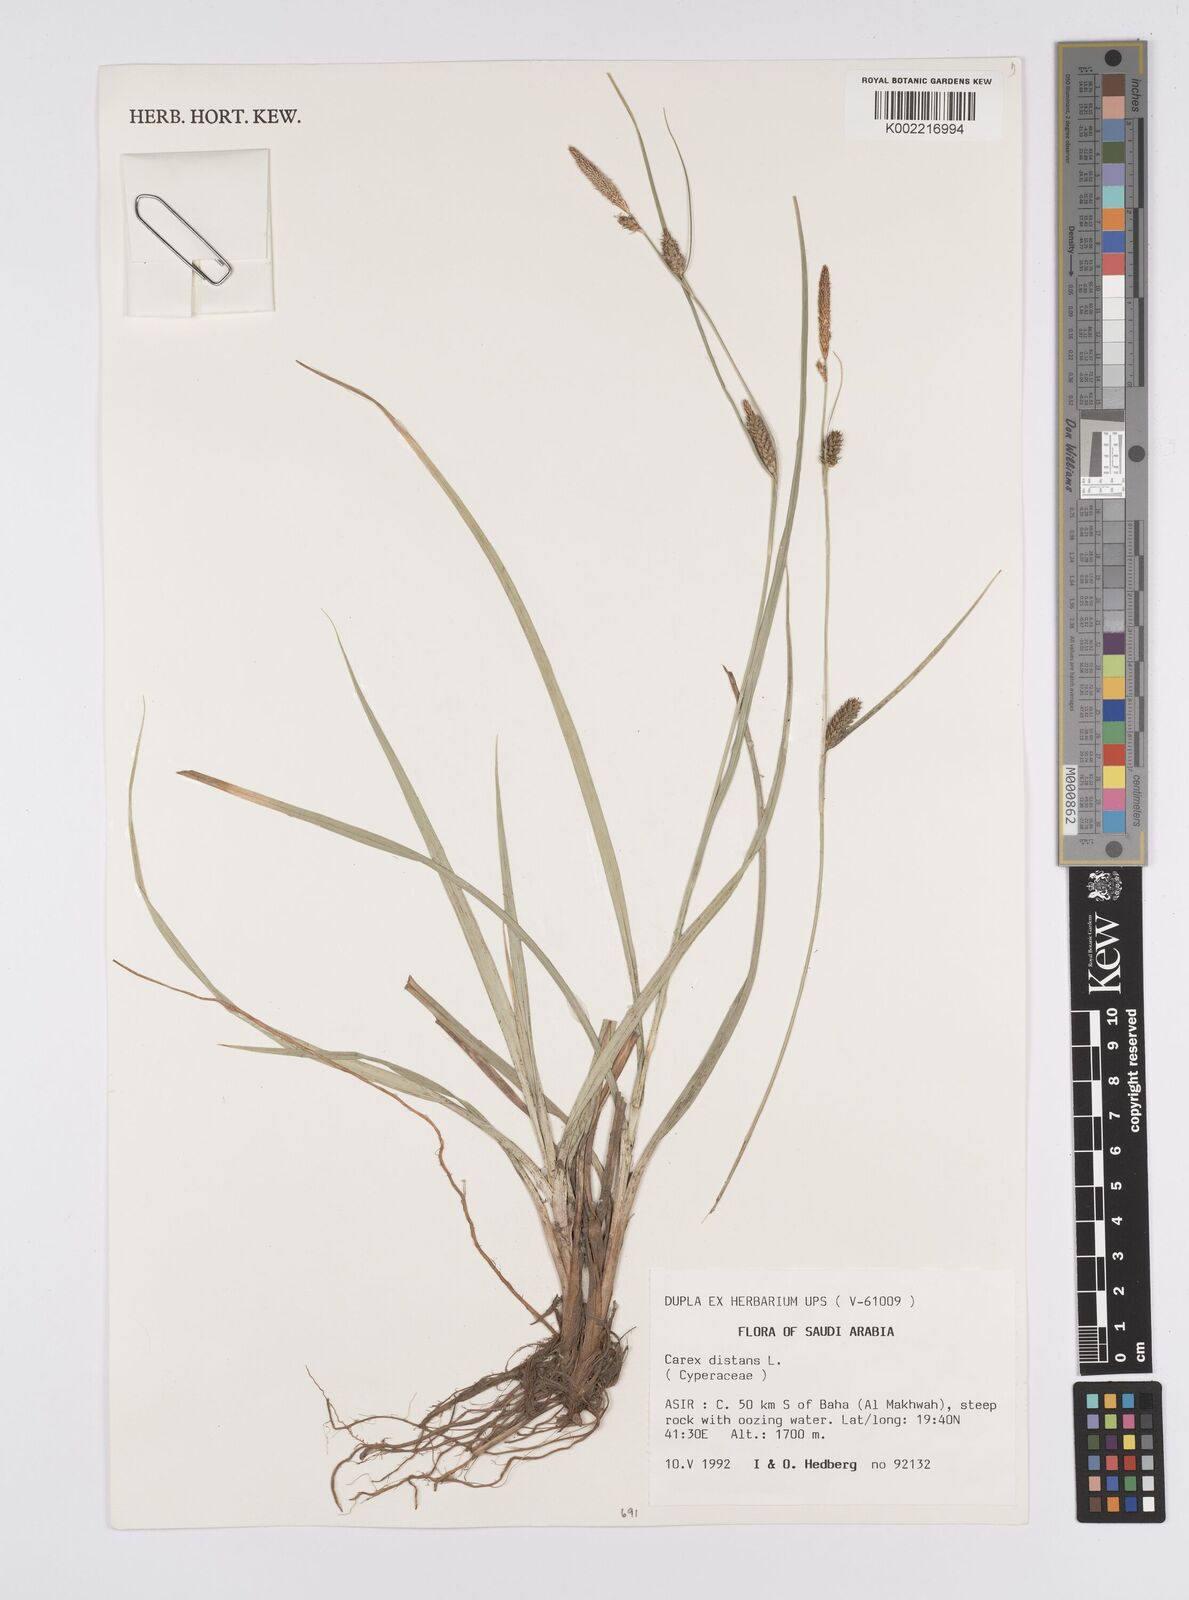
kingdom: Plantae
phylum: Tracheophyta
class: Liliopsida
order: Poales
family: Cyperaceae
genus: Carex
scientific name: Carex distans
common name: Distant sedge
